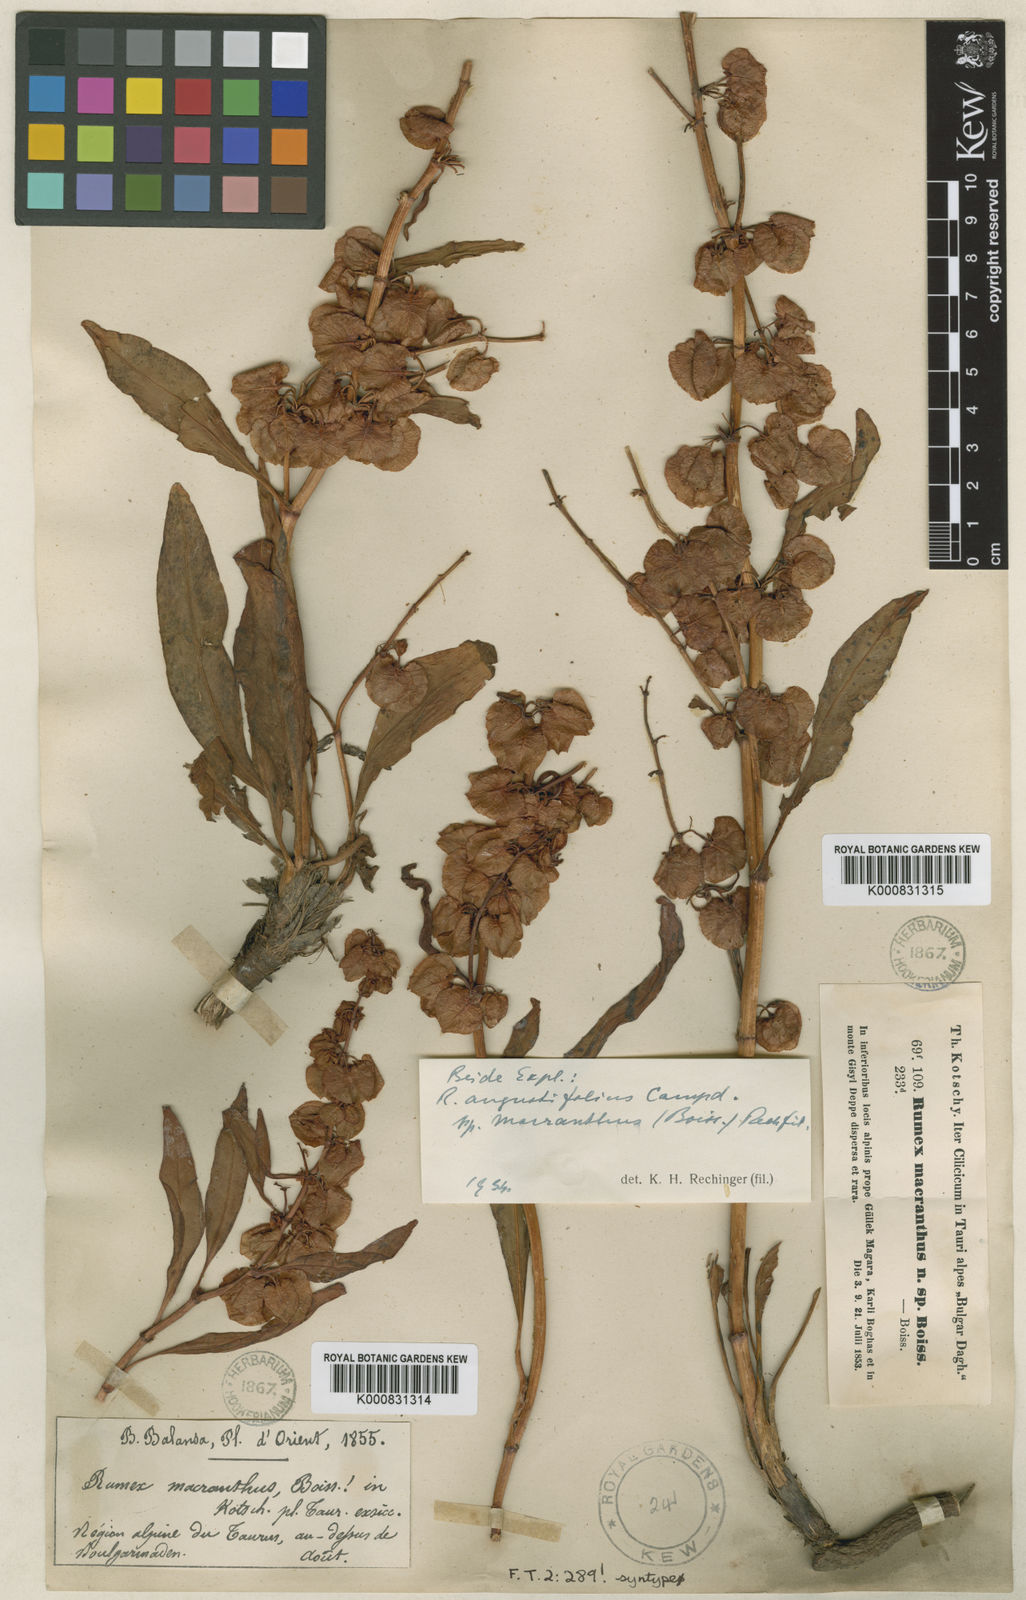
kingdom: Plantae
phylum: Tracheophyta
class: Magnoliopsida
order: Caryophyllales
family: Polygonaceae
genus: Rumex
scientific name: Rumex angustifolius
